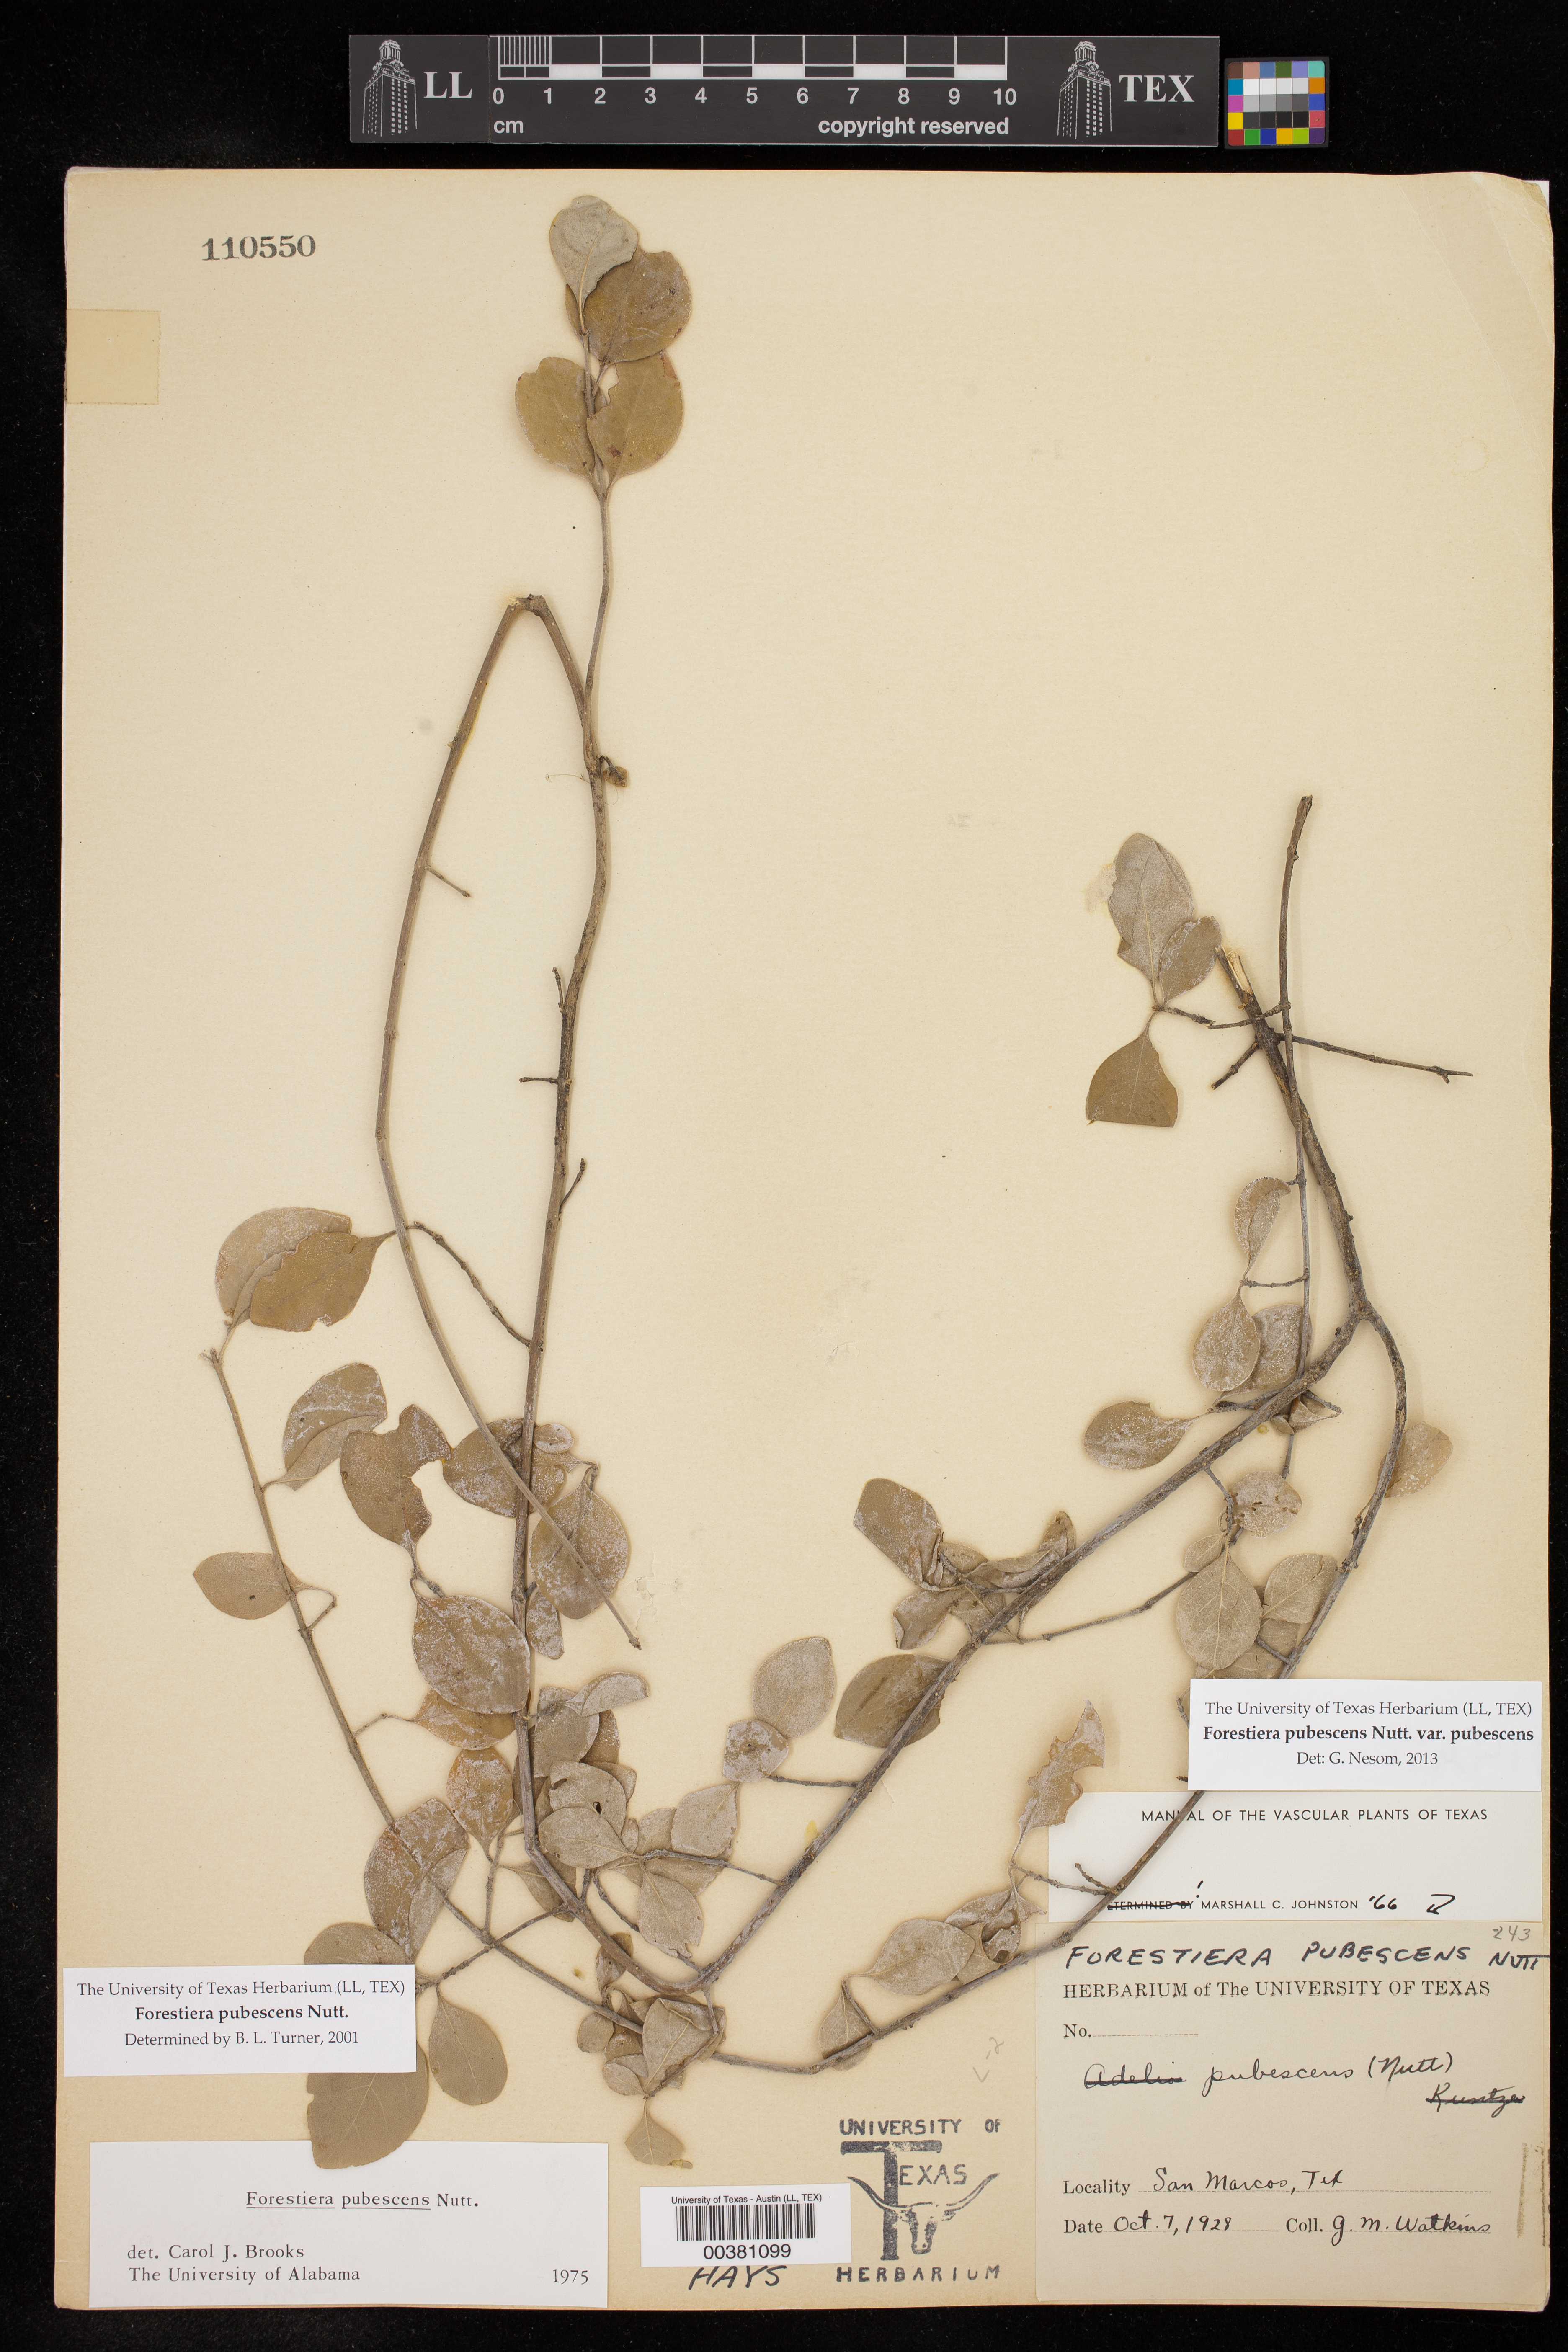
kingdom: Plantae
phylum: Tracheophyta
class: Magnoliopsida
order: Lamiales
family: Oleaceae
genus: Forestiera
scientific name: Forestiera pubescens
